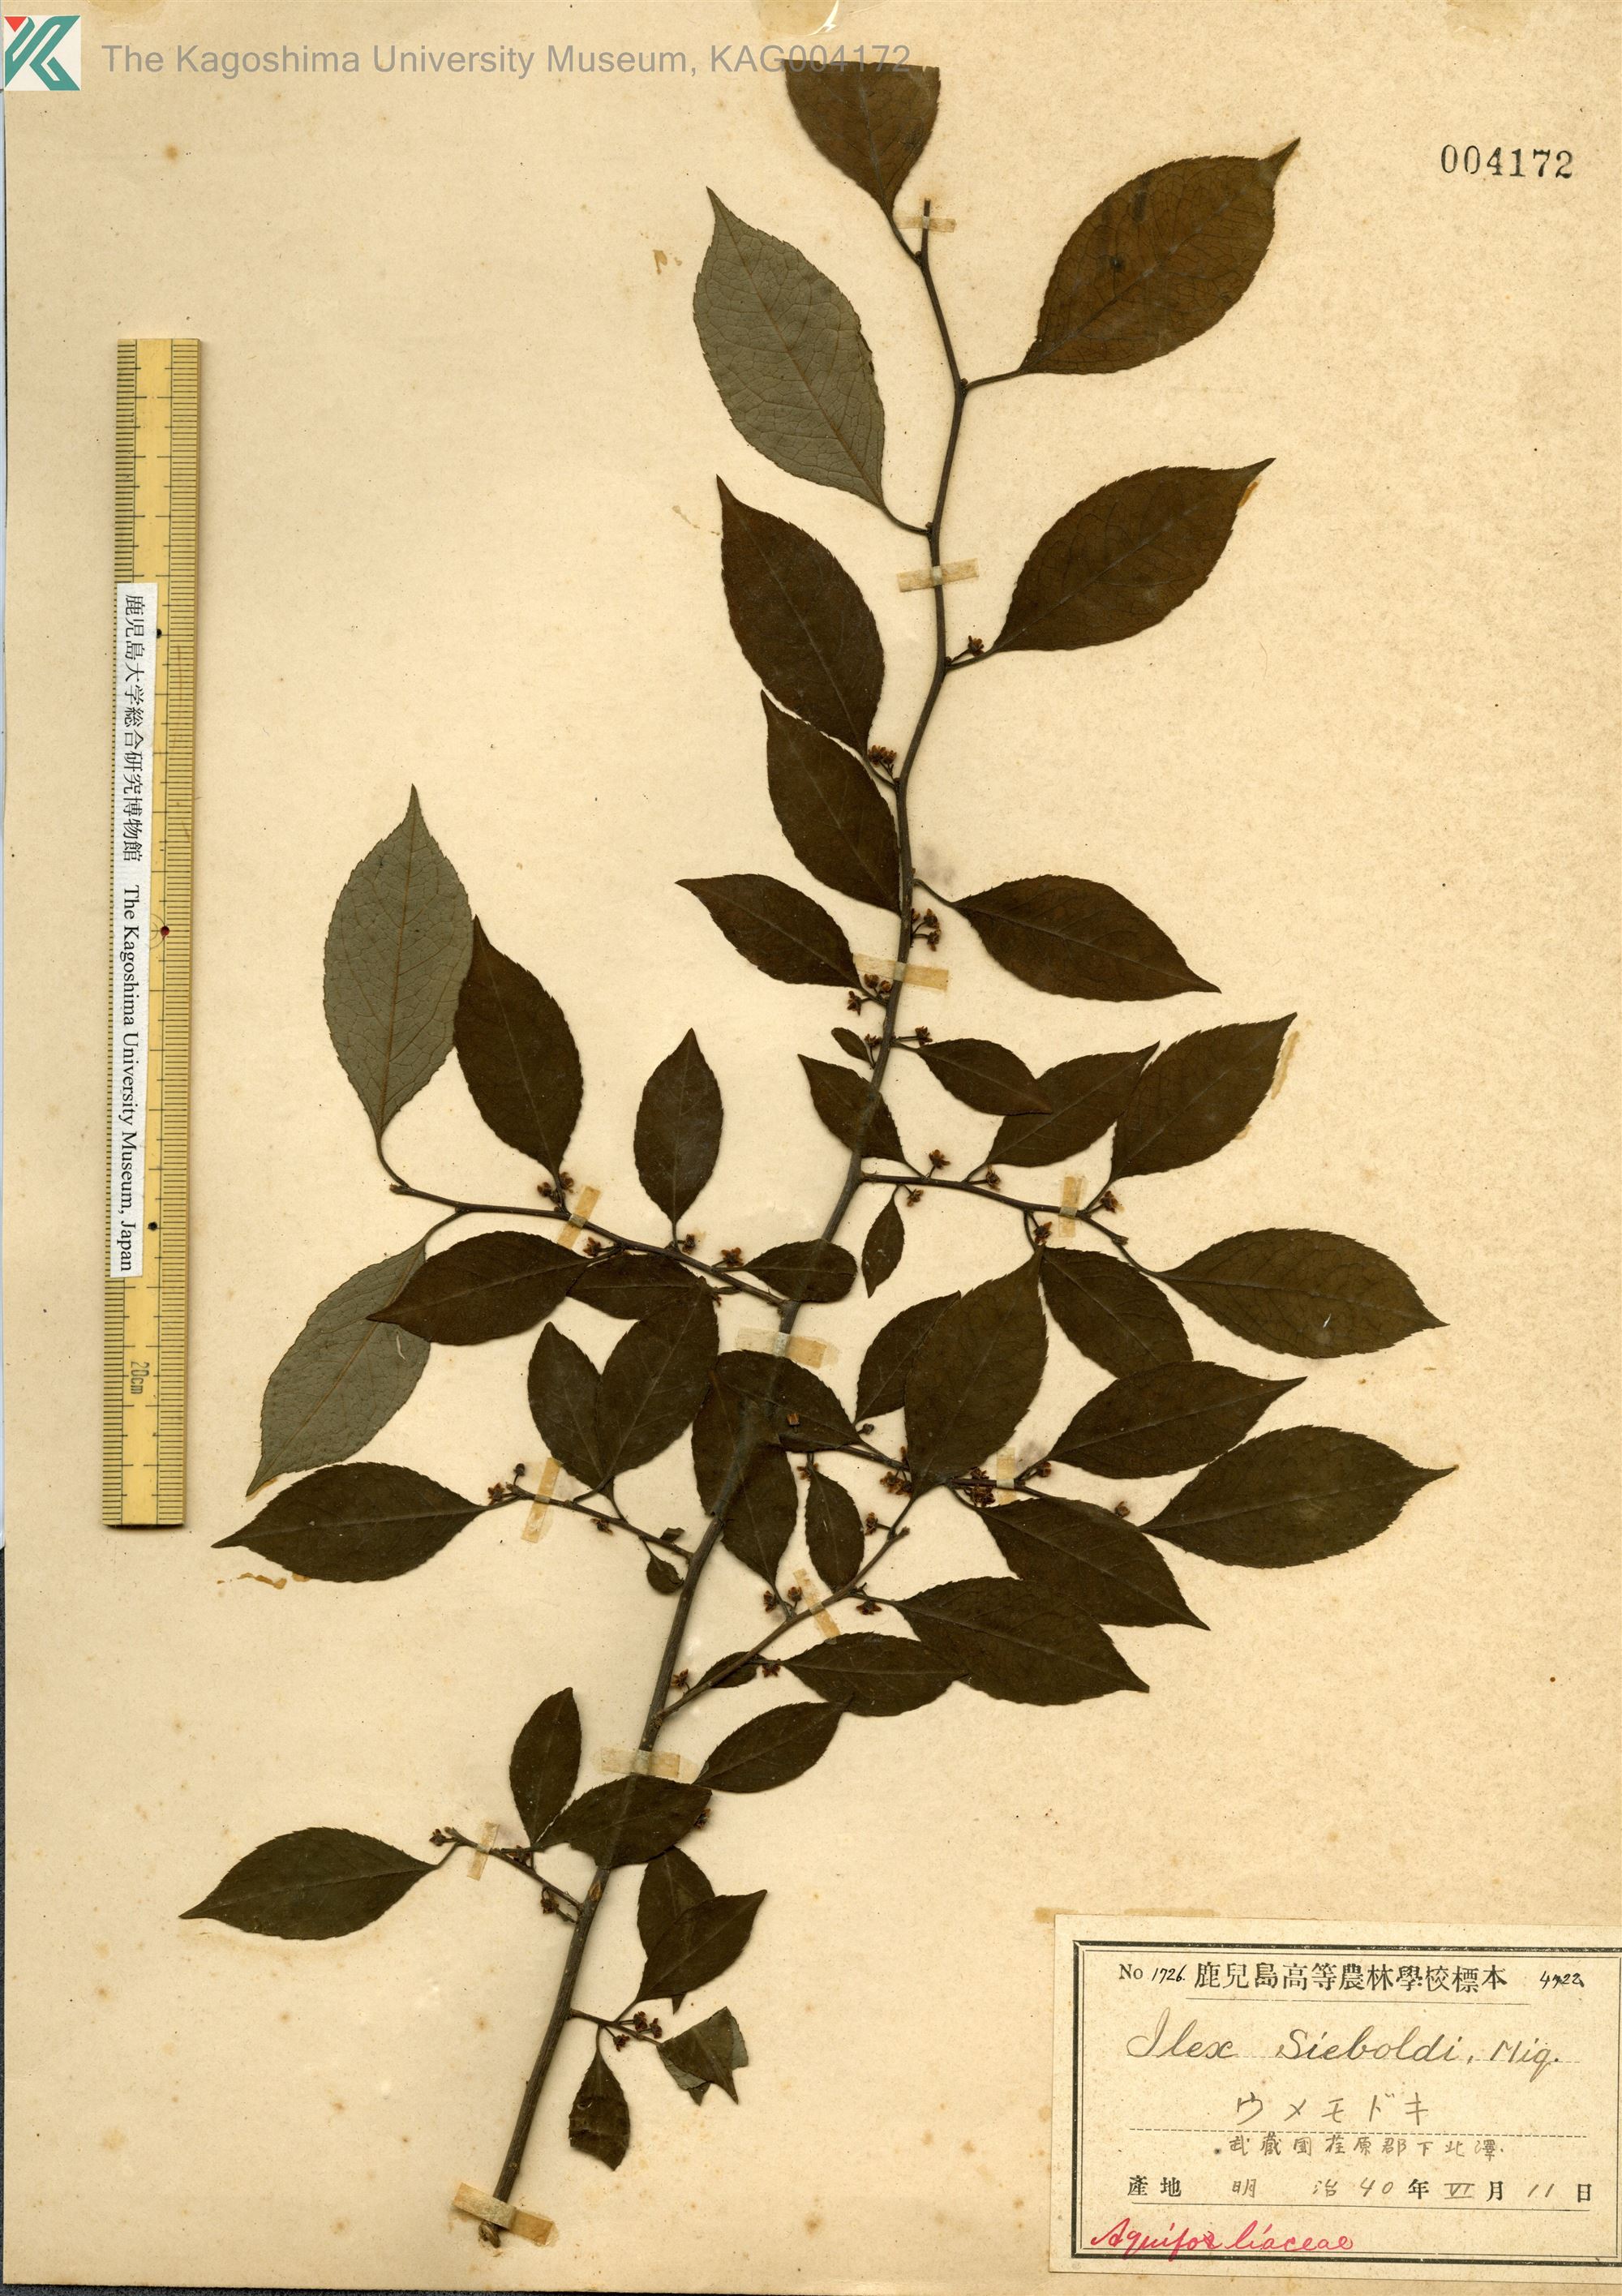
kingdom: Plantae
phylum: Tracheophyta
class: Magnoliopsida
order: Aquifoliales
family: Aquifoliaceae
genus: Ilex
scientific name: Ilex serrata
